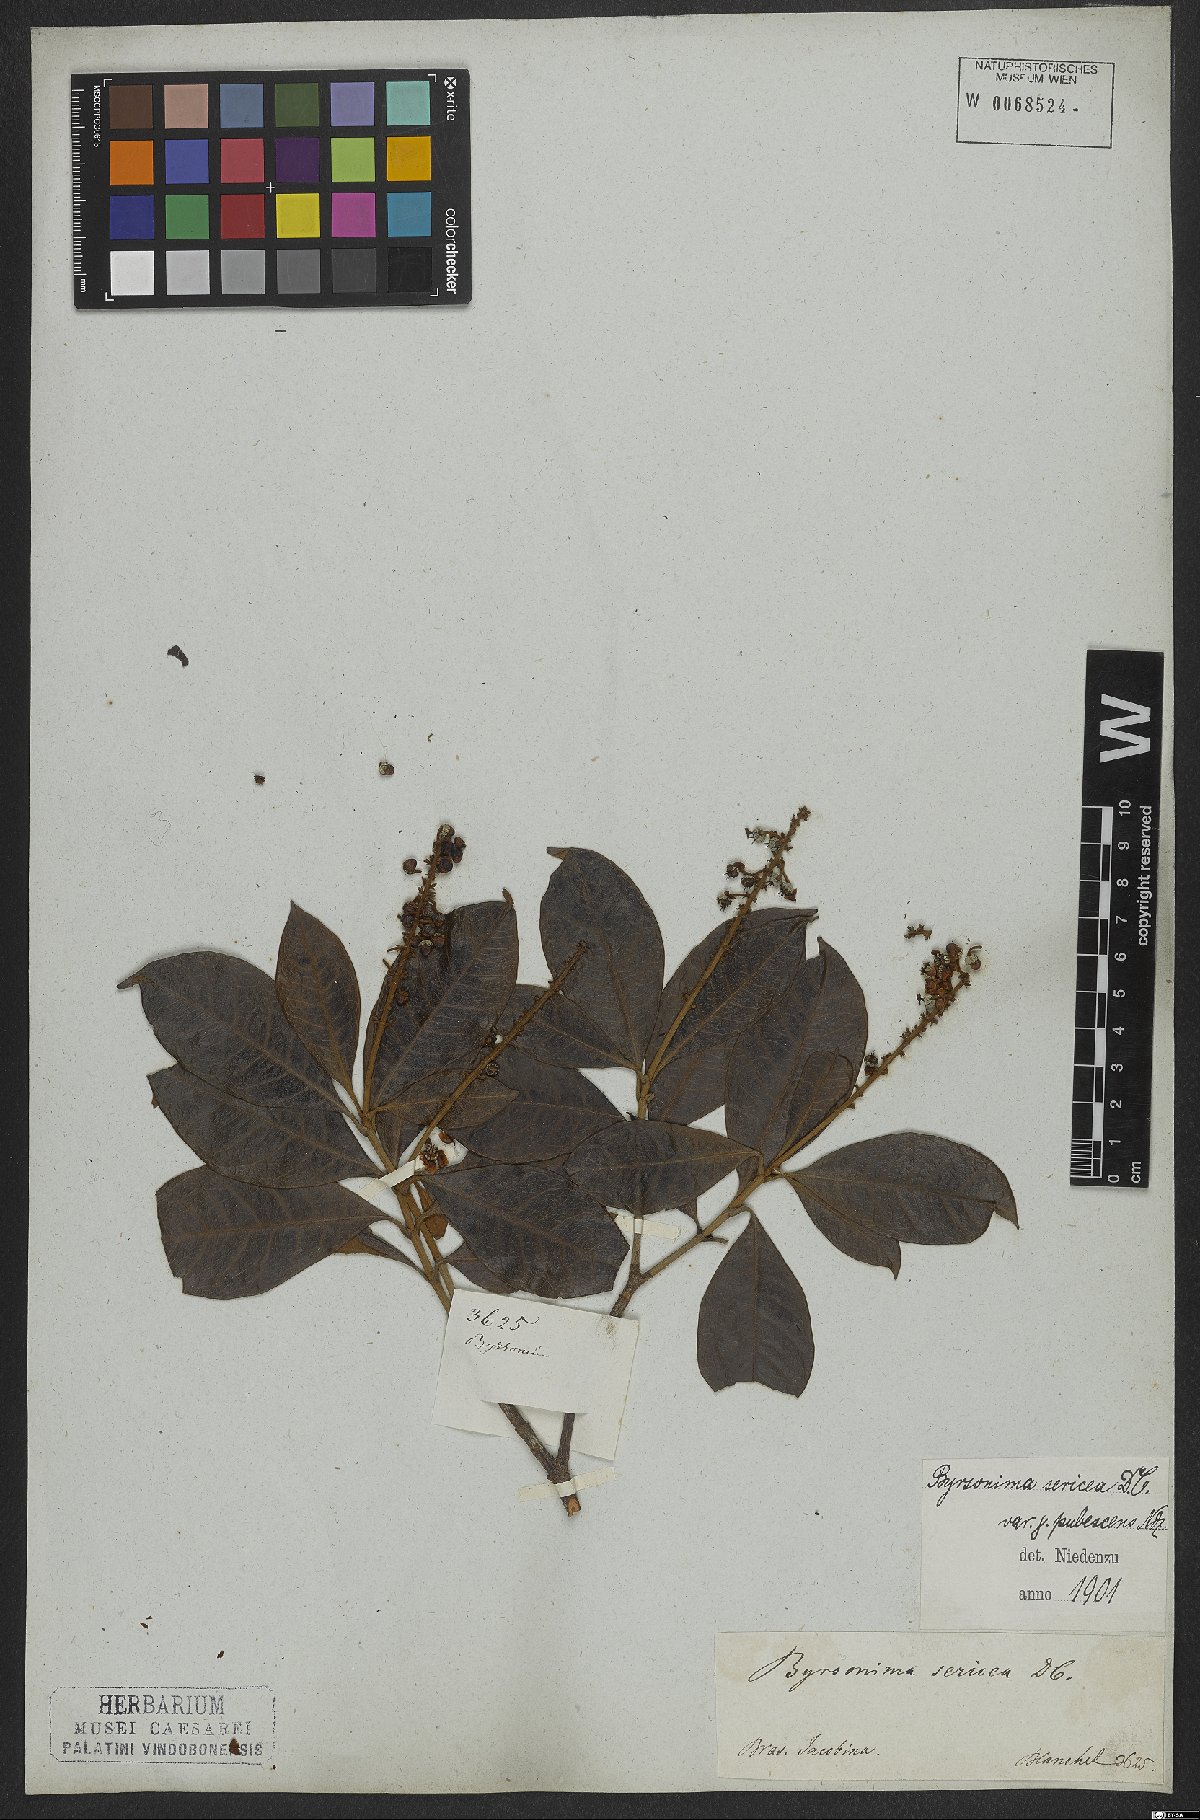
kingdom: Plantae
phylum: Tracheophyta
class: Magnoliopsida
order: Malpighiales
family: Malpighiaceae
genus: Byrsonima
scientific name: Byrsonima sericea
